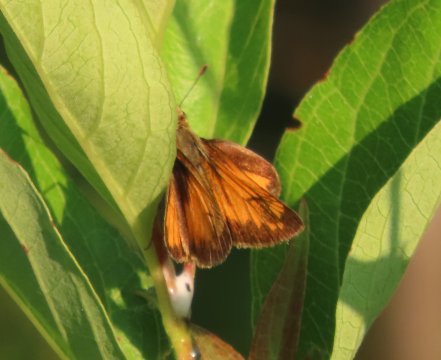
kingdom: Animalia
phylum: Arthropoda
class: Insecta
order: Lepidoptera
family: Hesperiidae
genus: Lon
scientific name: Lon hobomok
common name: Hobomok Skipper
